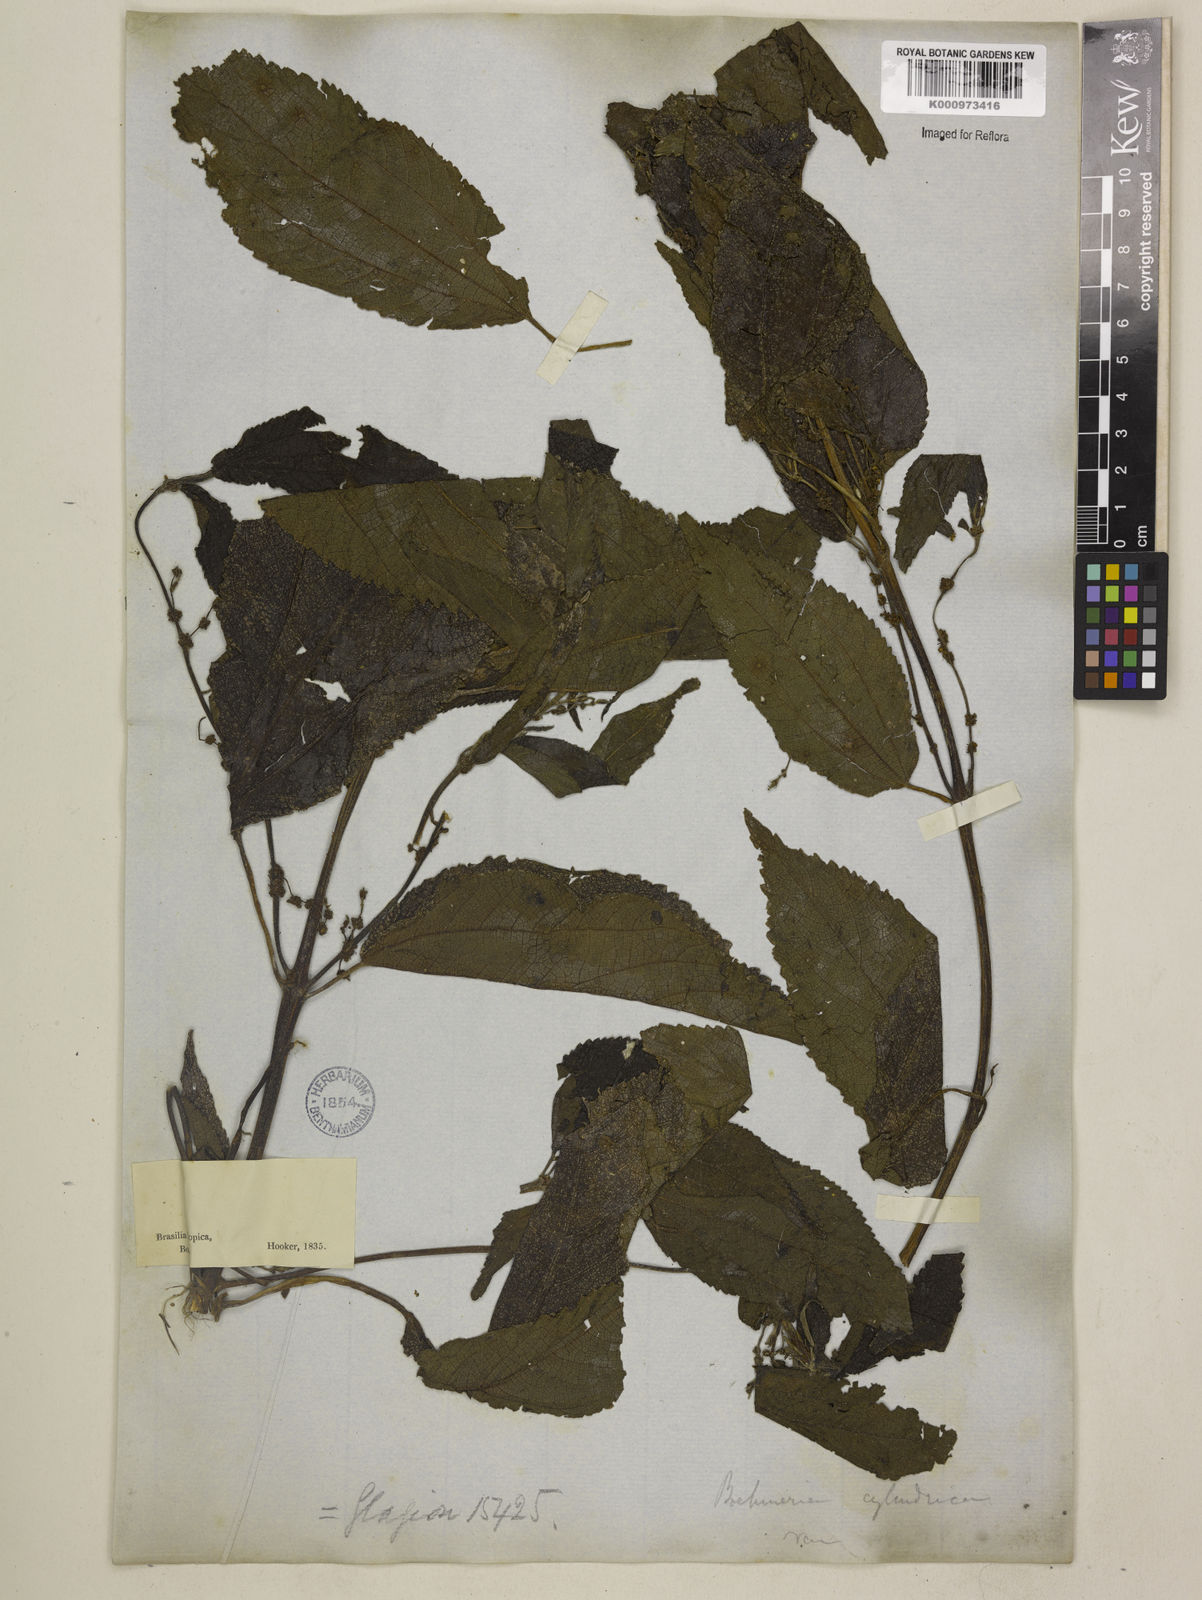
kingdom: Plantae
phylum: Tracheophyta
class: Magnoliopsida
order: Rosales
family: Urticaceae
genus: Boehmeria
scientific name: Boehmeria cylindrica
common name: Bog-hemp
